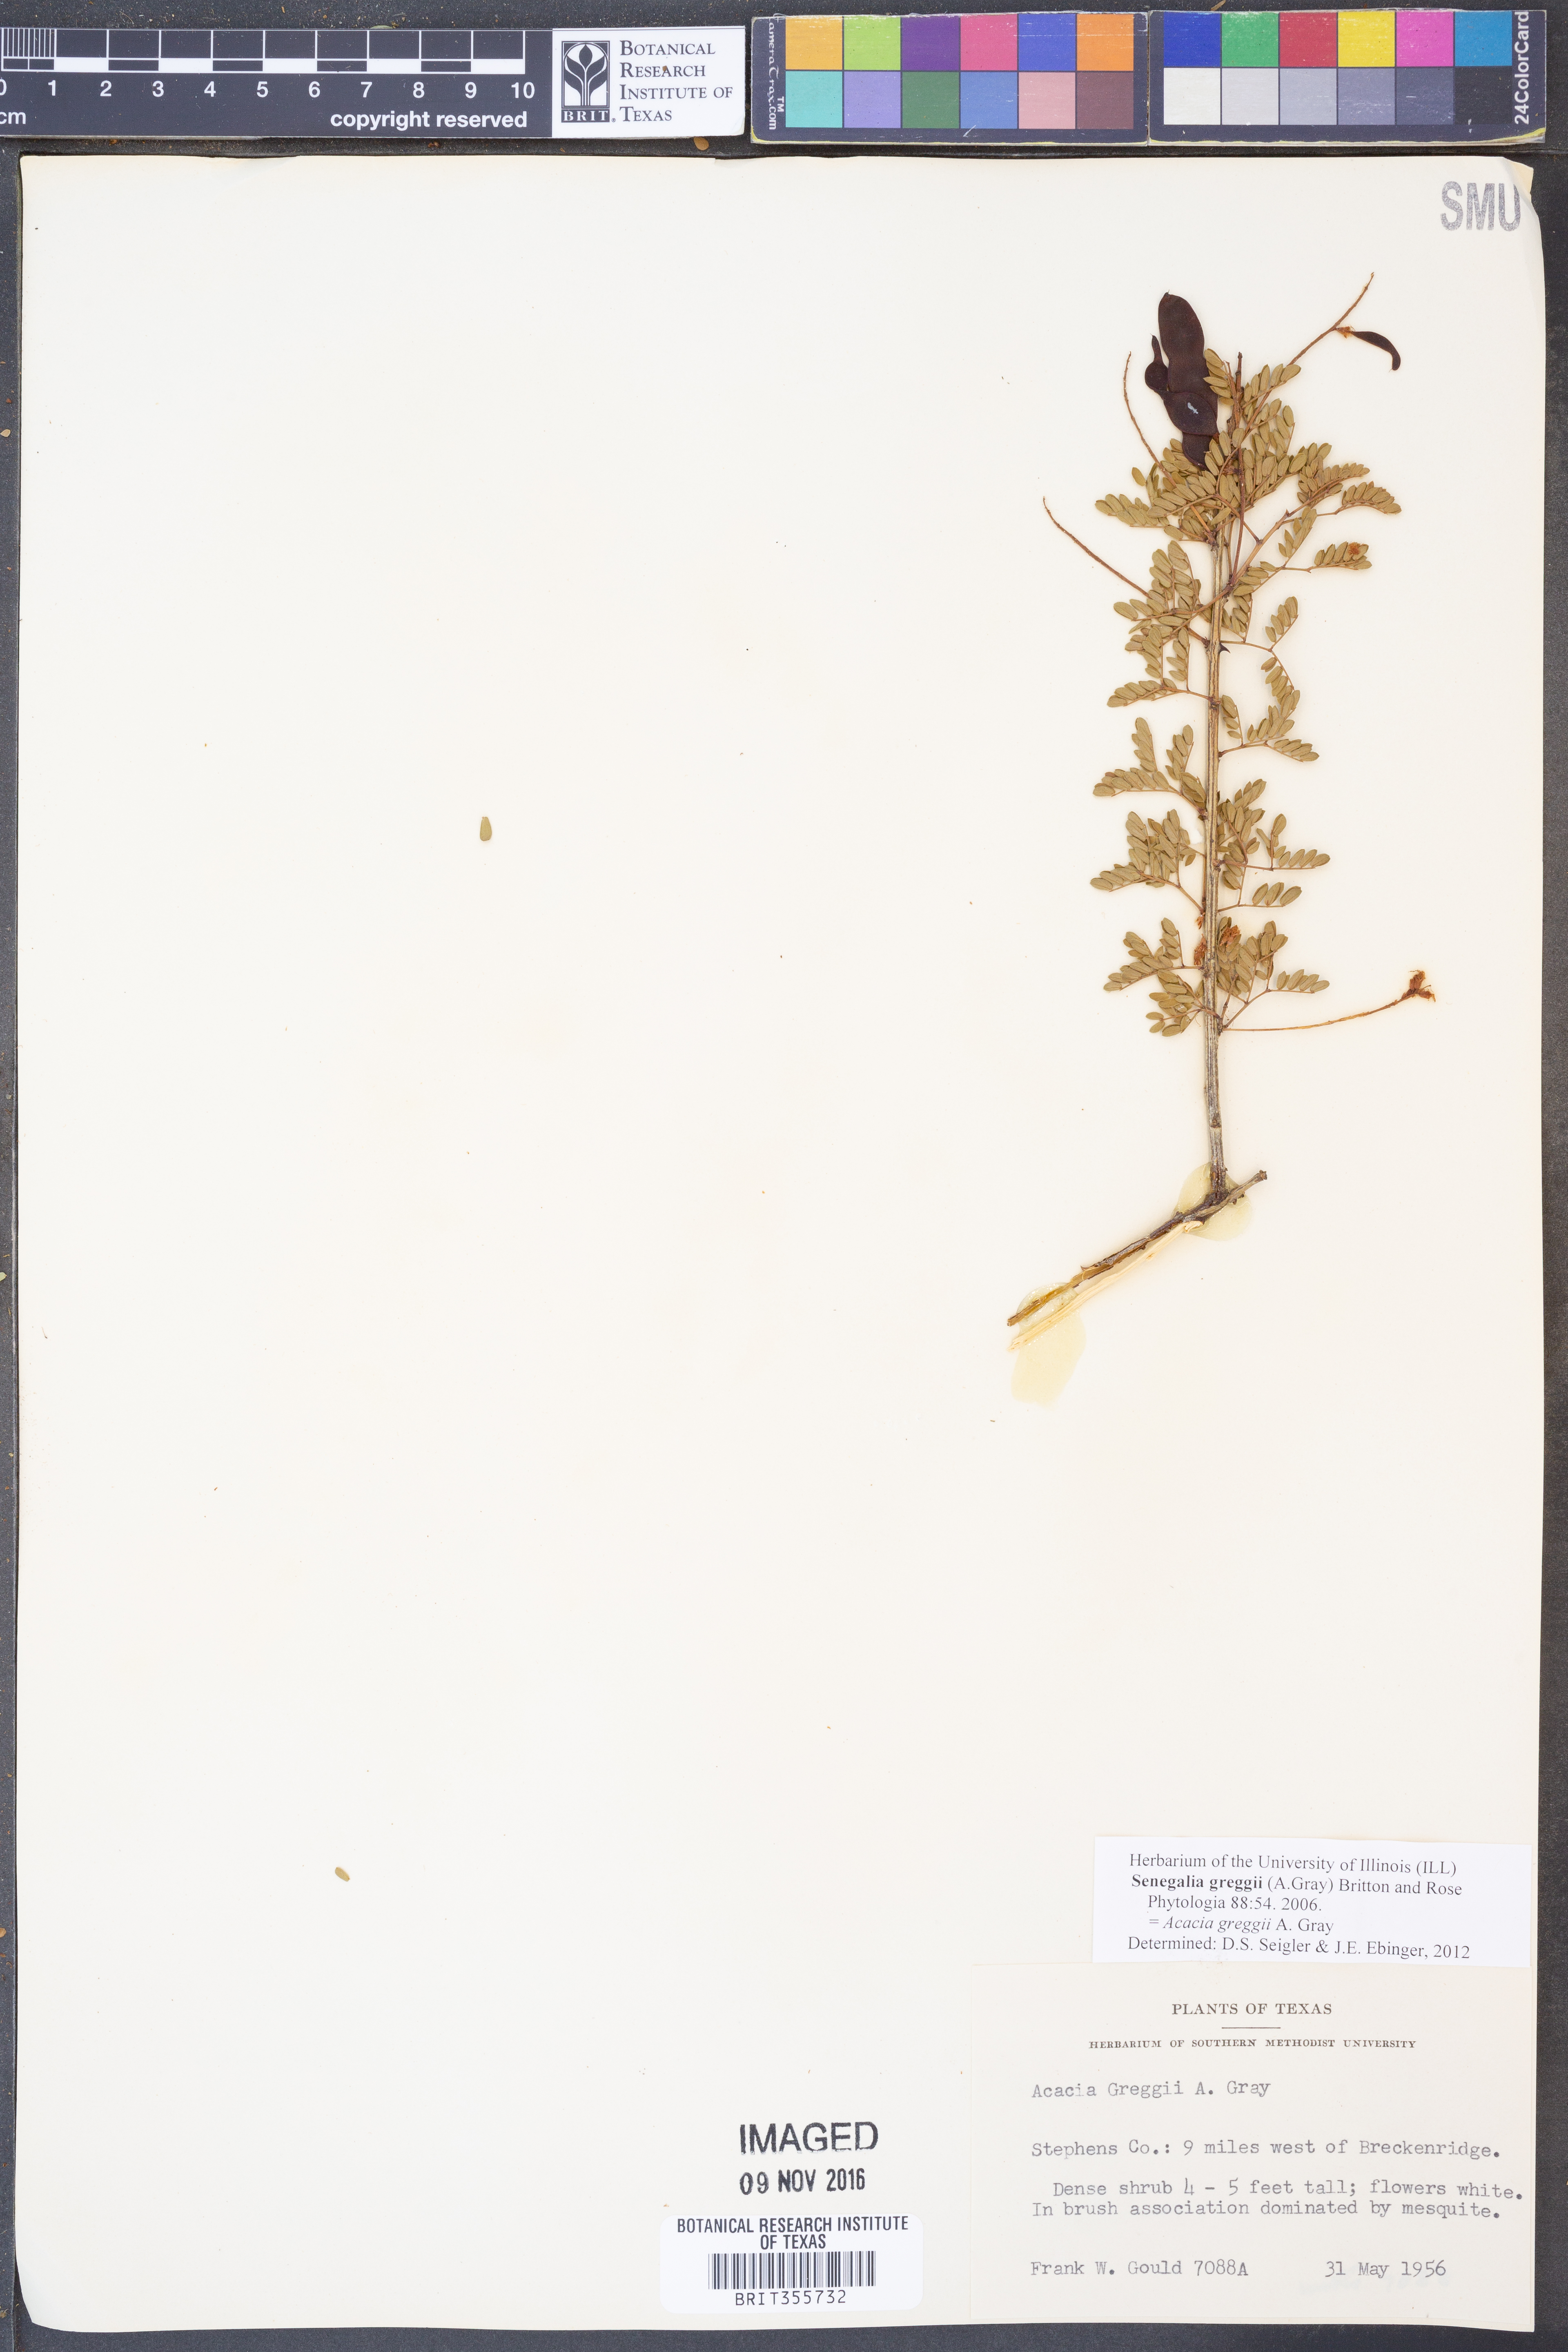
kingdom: Plantae
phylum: Tracheophyta
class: Magnoliopsida
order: Fabales
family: Fabaceae
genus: Senegalia
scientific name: Senegalia greggii
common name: Texas-mimosa
